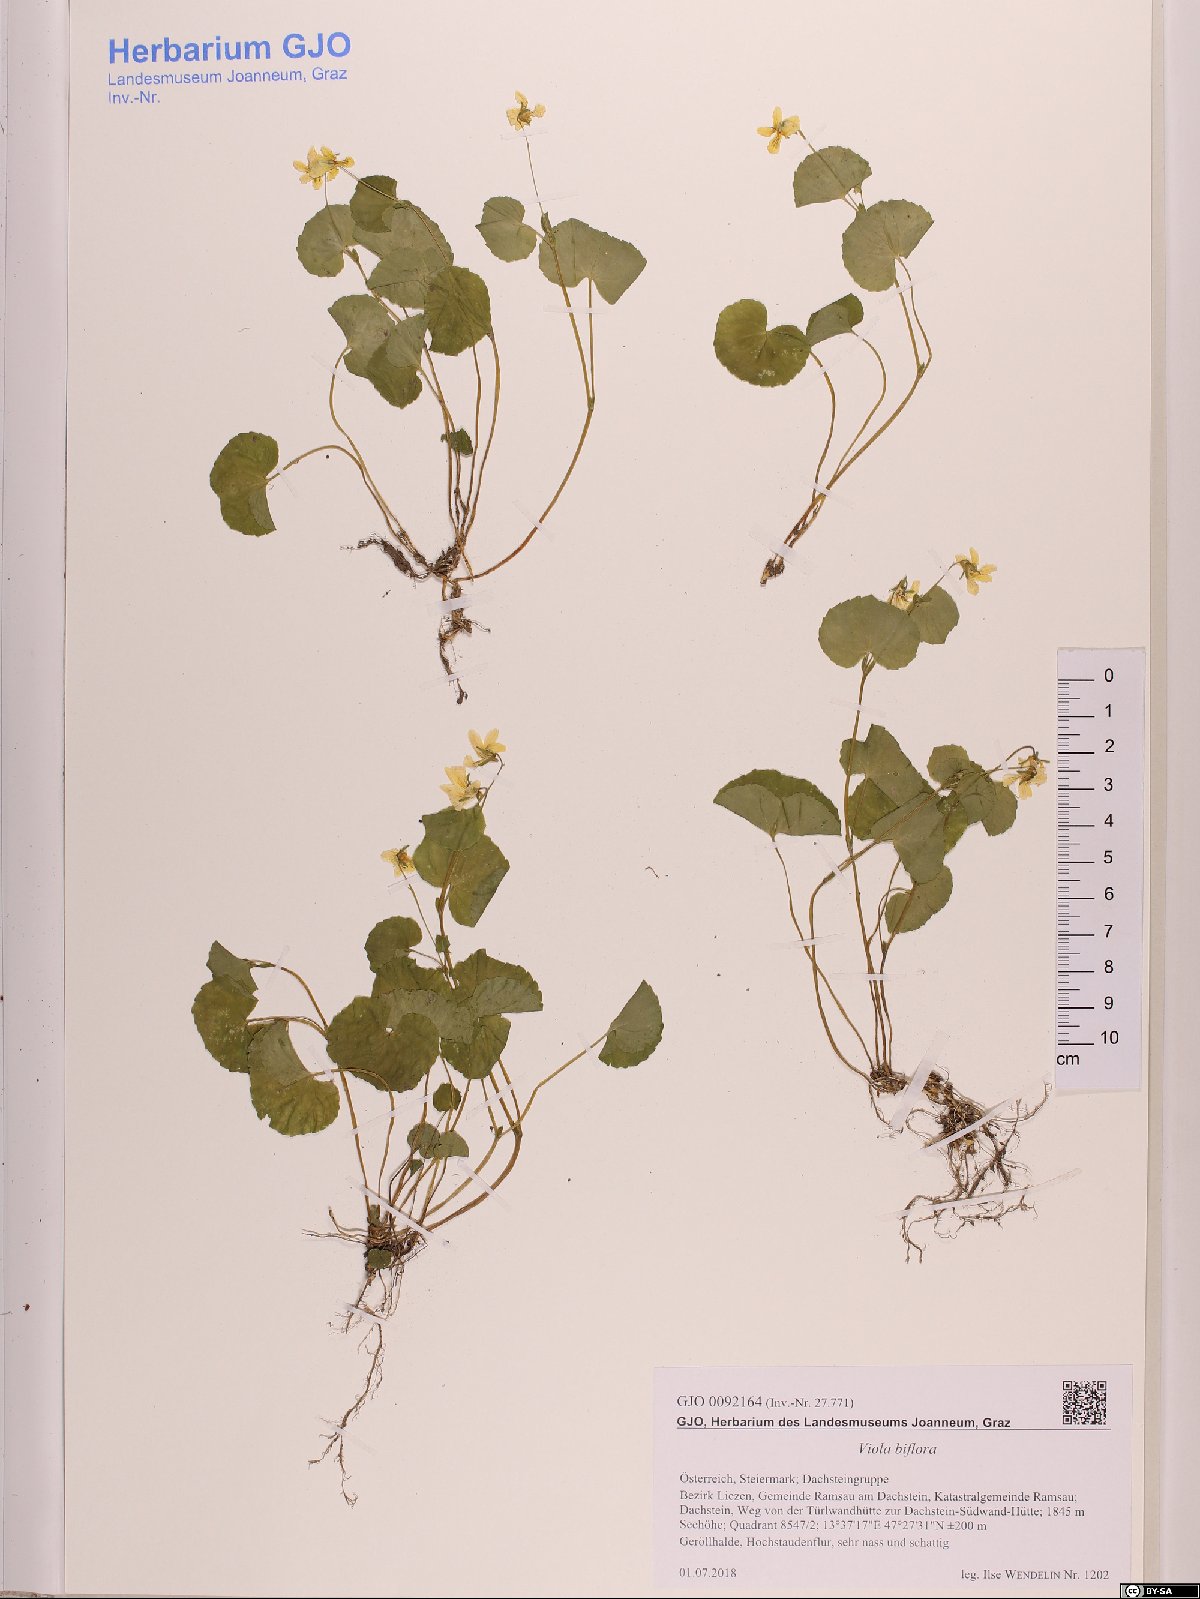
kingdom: Plantae
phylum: Tracheophyta
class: Magnoliopsida
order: Malpighiales
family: Violaceae
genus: Viola
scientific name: Viola biflora
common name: Alpine yellow violet
